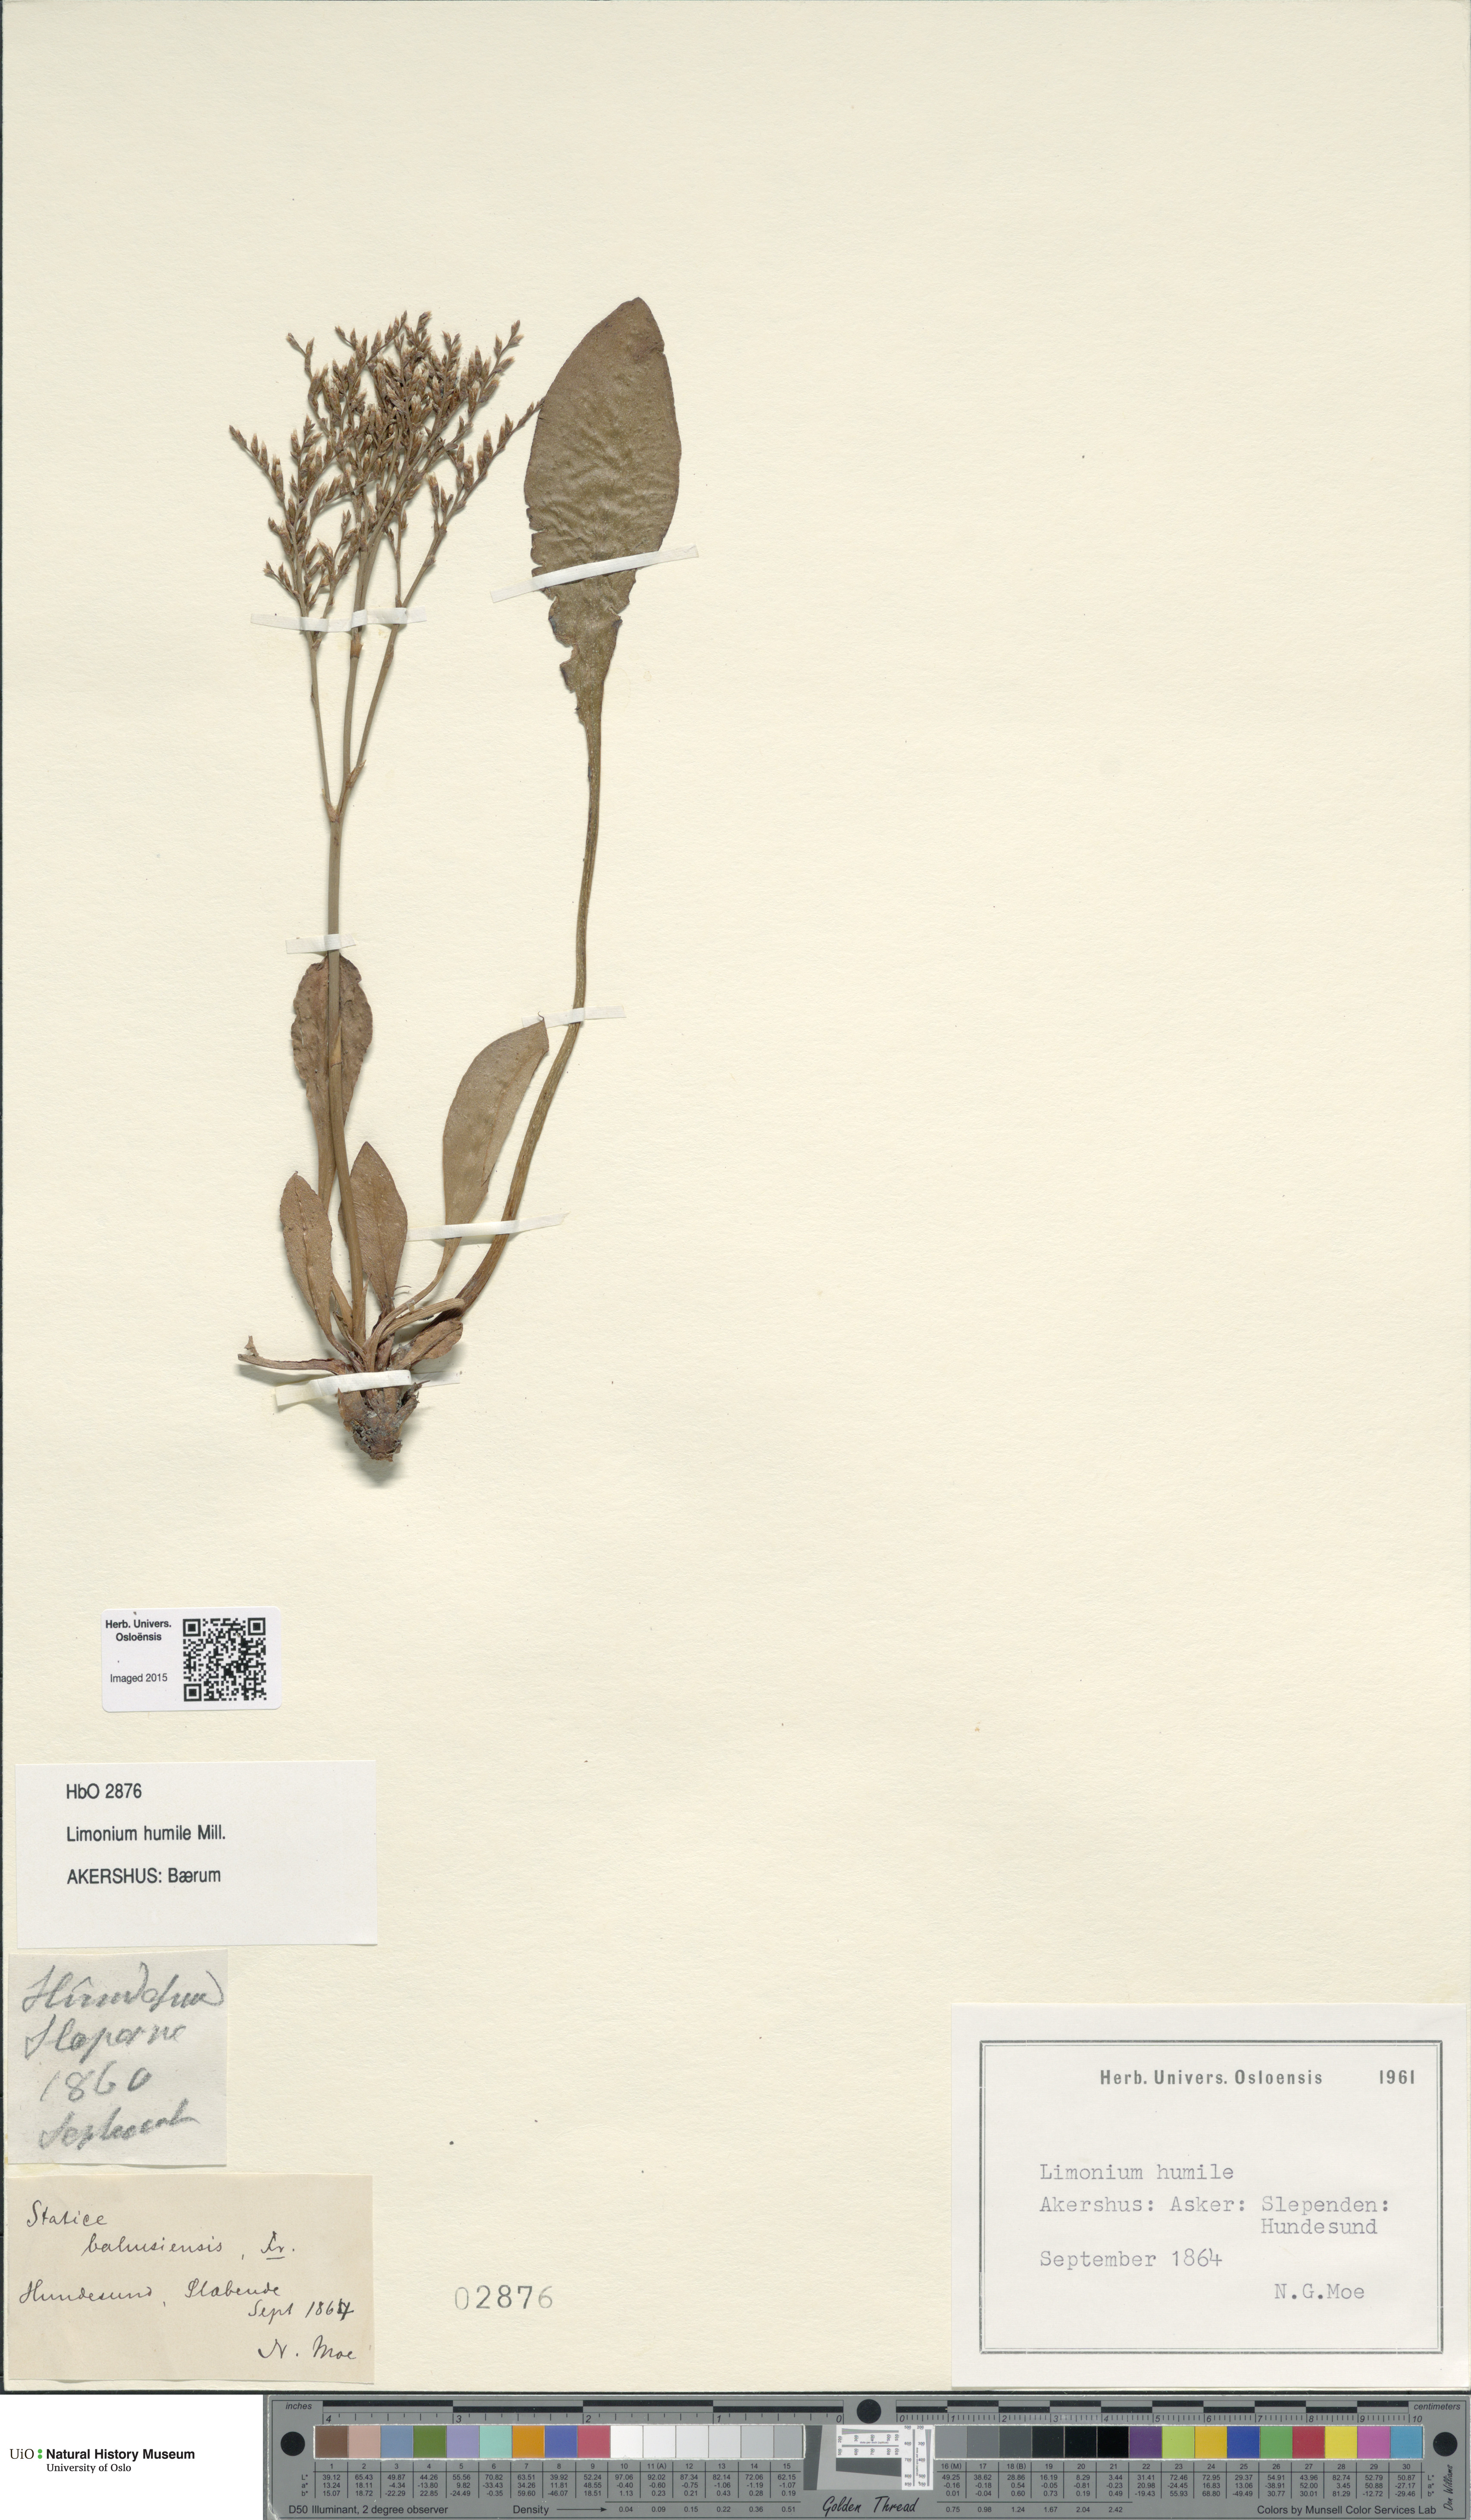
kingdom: Plantae
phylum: Tracheophyta
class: Magnoliopsida
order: Caryophyllales
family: Plumbaginaceae
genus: Limonium
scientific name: Limonium humile
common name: Lax-flowered sea-lavender
